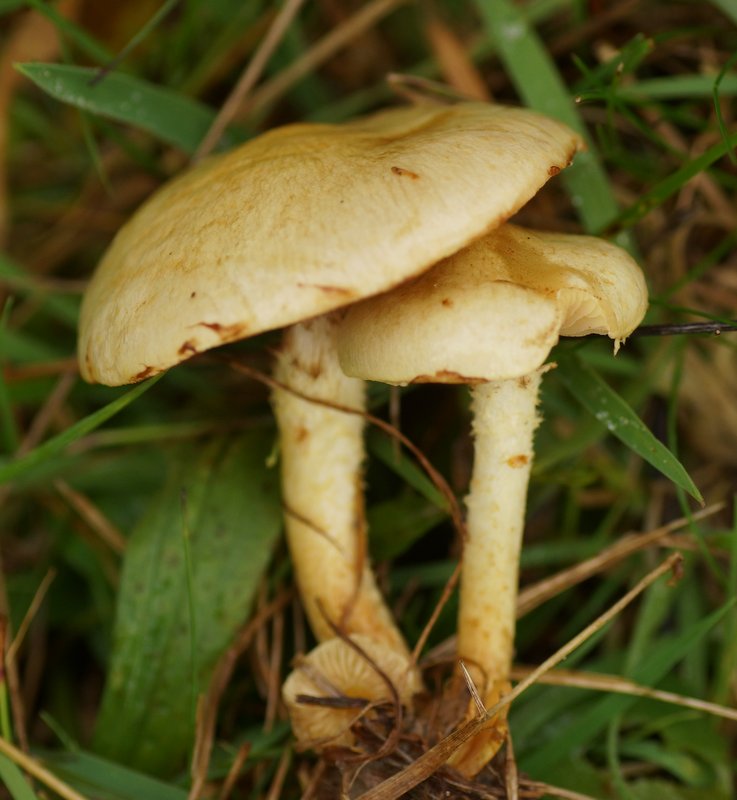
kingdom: Fungi
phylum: Basidiomycota
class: Agaricomycetes
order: Agaricales
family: Strophariaceae
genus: Pholiota
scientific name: Pholiota gummosa
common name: grøngul skælhat
